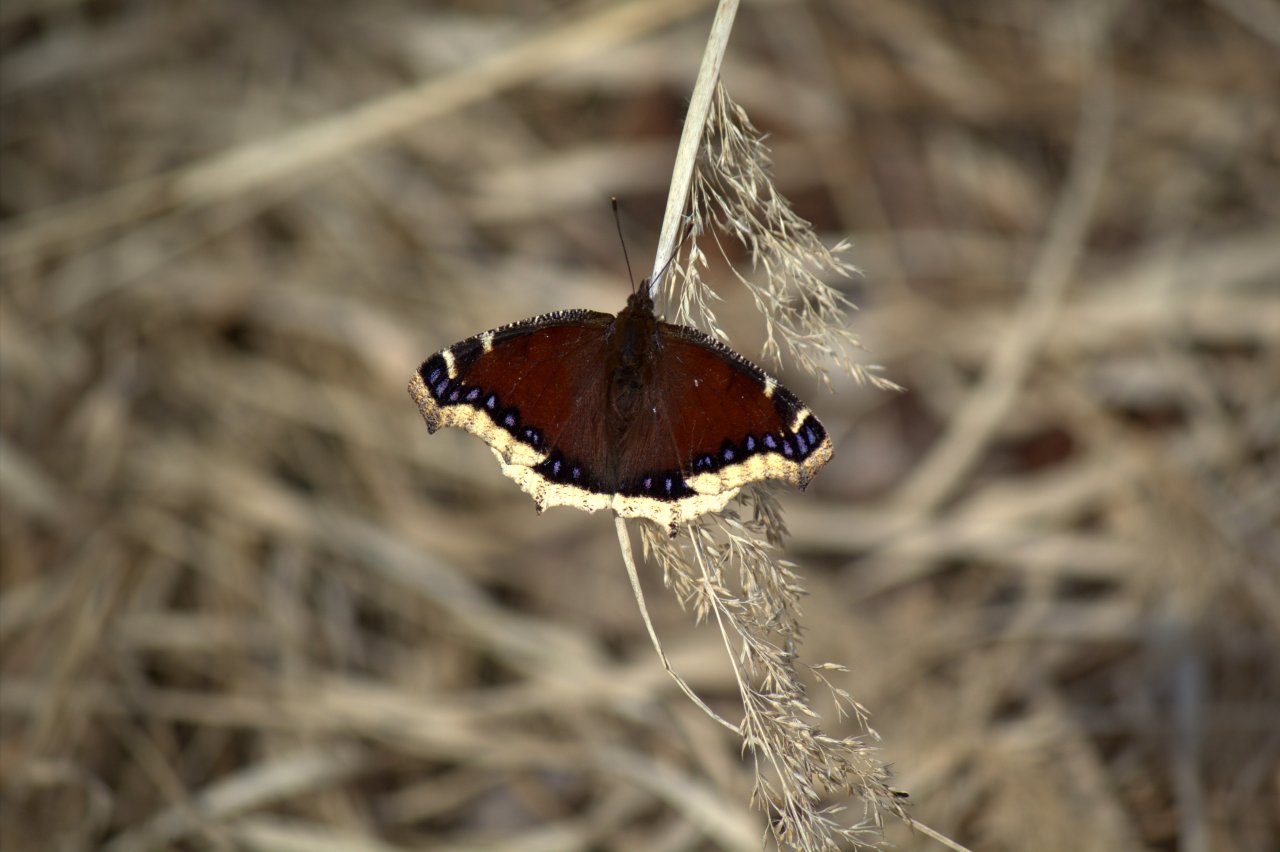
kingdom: Animalia
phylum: Arthropoda
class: Insecta
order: Lepidoptera
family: Nymphalidae
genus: Nymphalis
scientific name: Nymphalis antiopa
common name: Mourning Cloak
